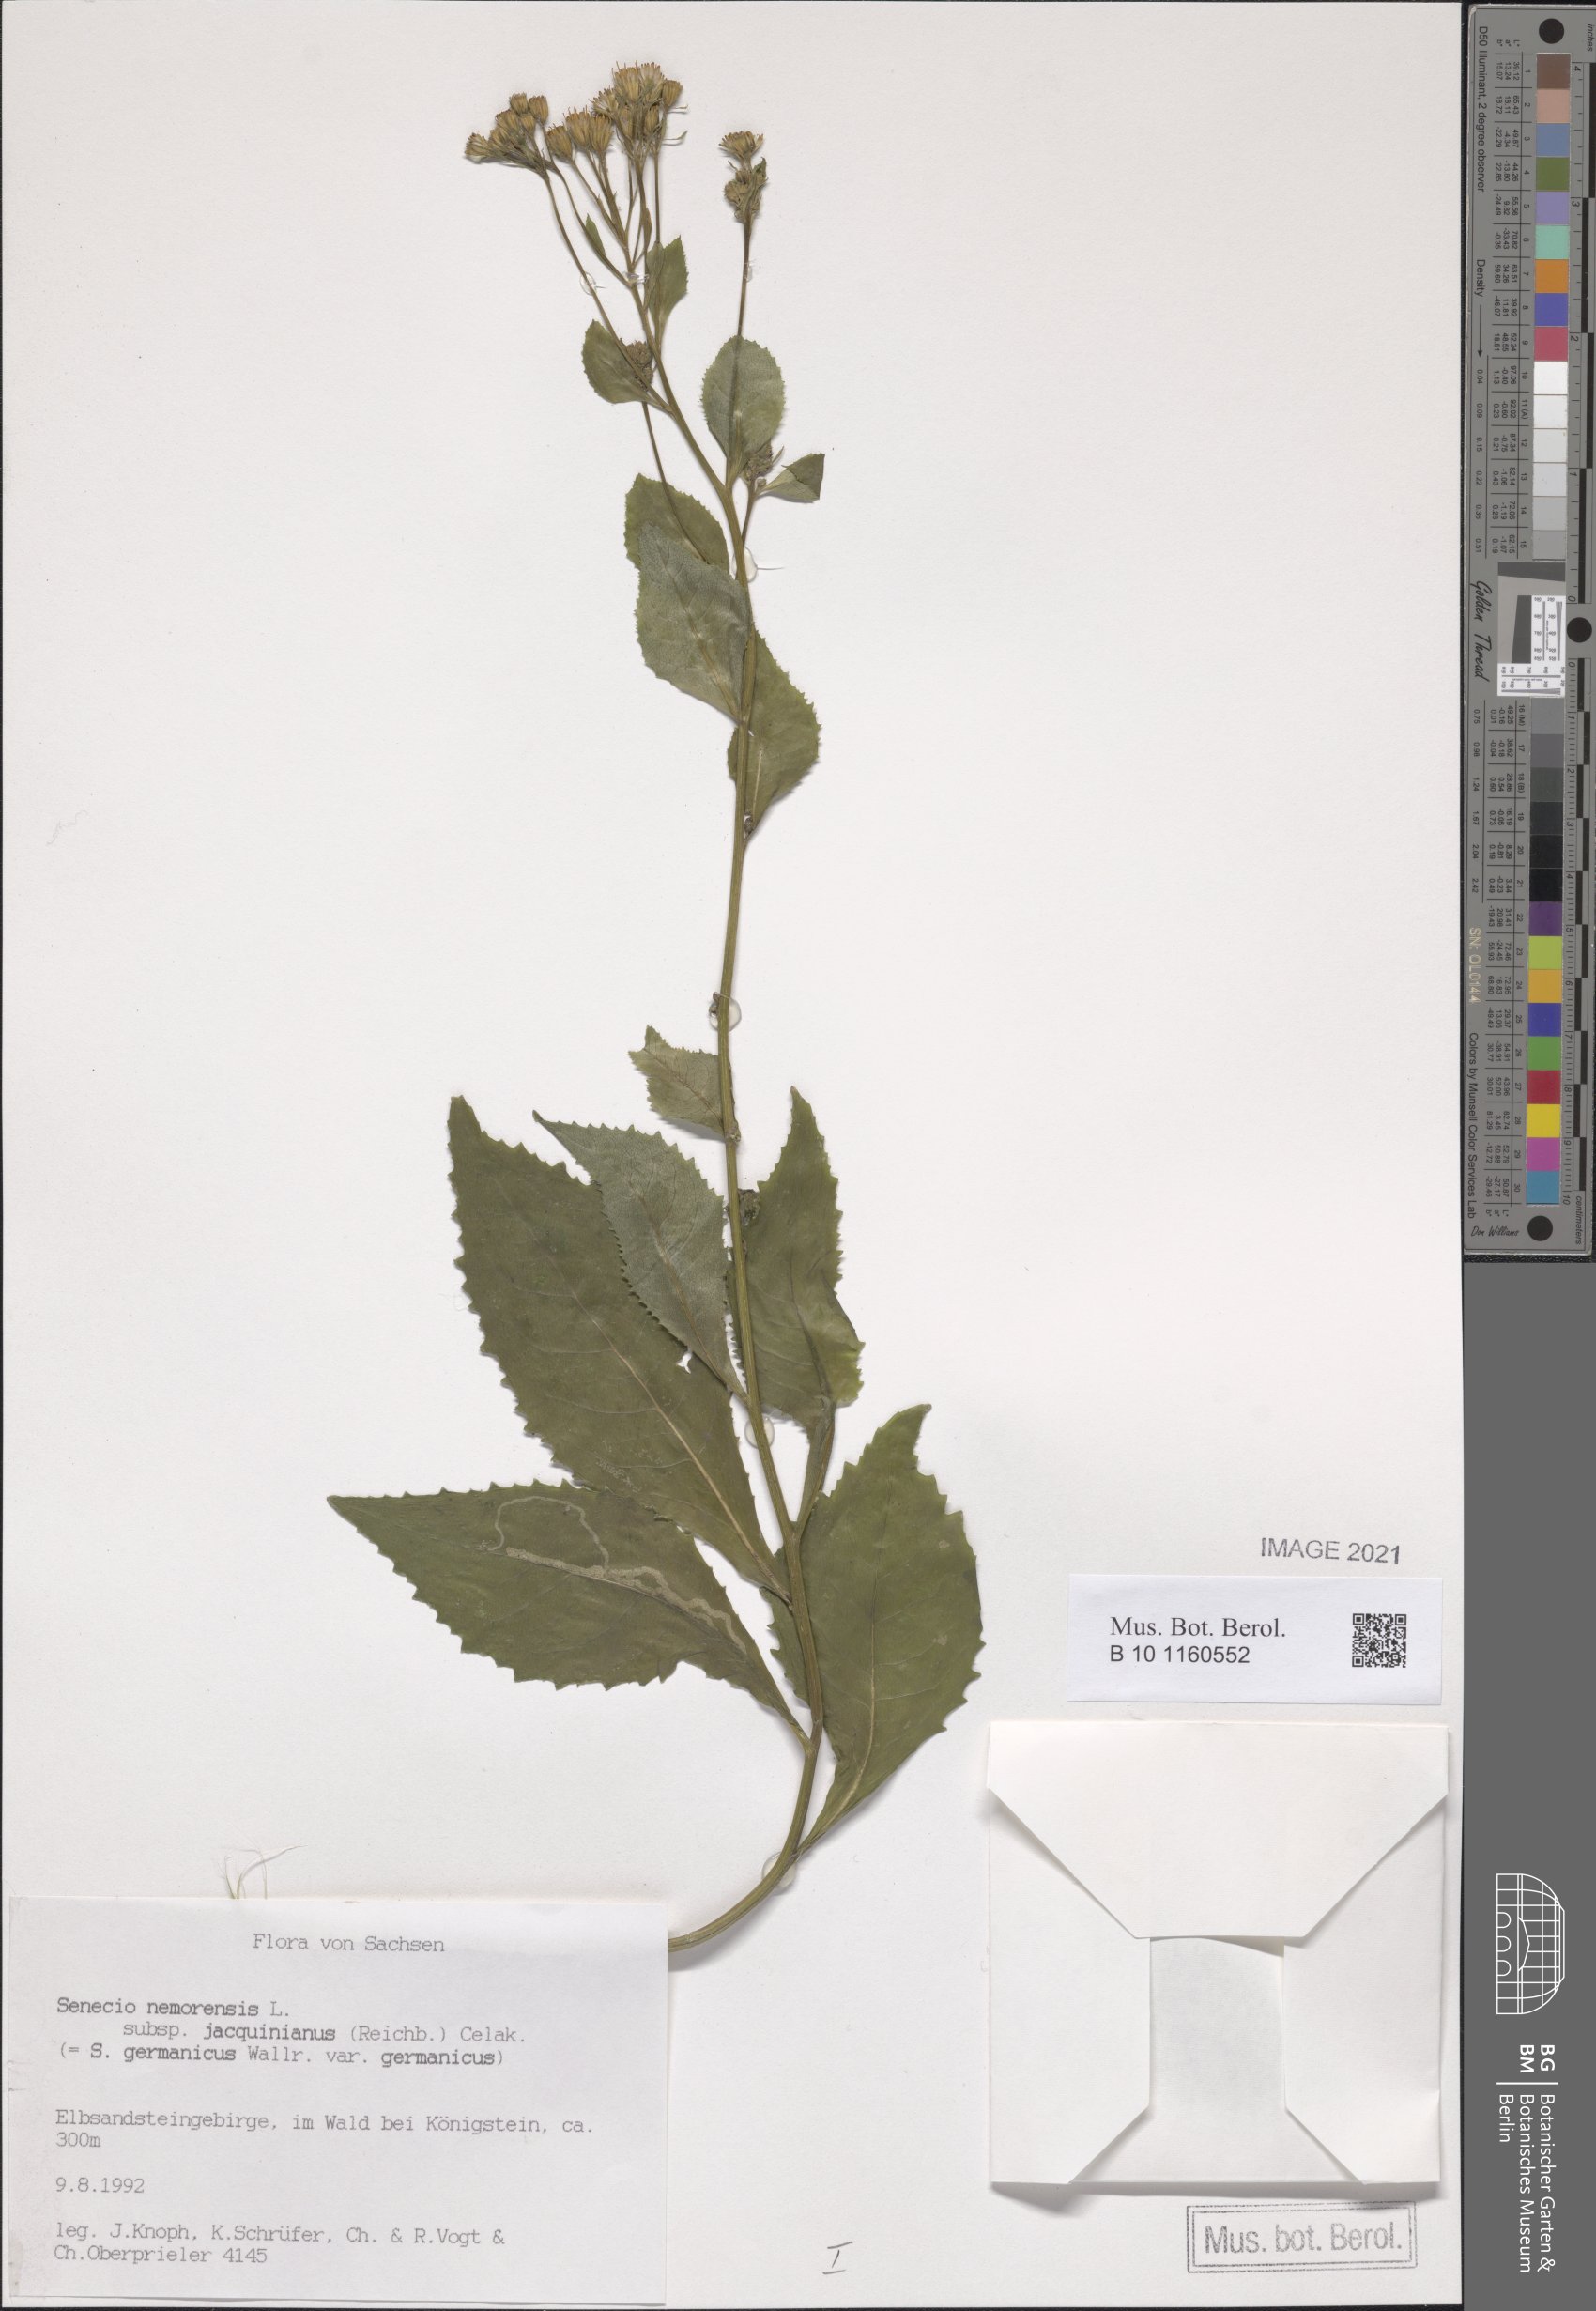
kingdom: Plantae
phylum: Tracheophyta
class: Magnoliopsida
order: Asterales
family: Asteraceae
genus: Senecio
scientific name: Senecio germanicus
